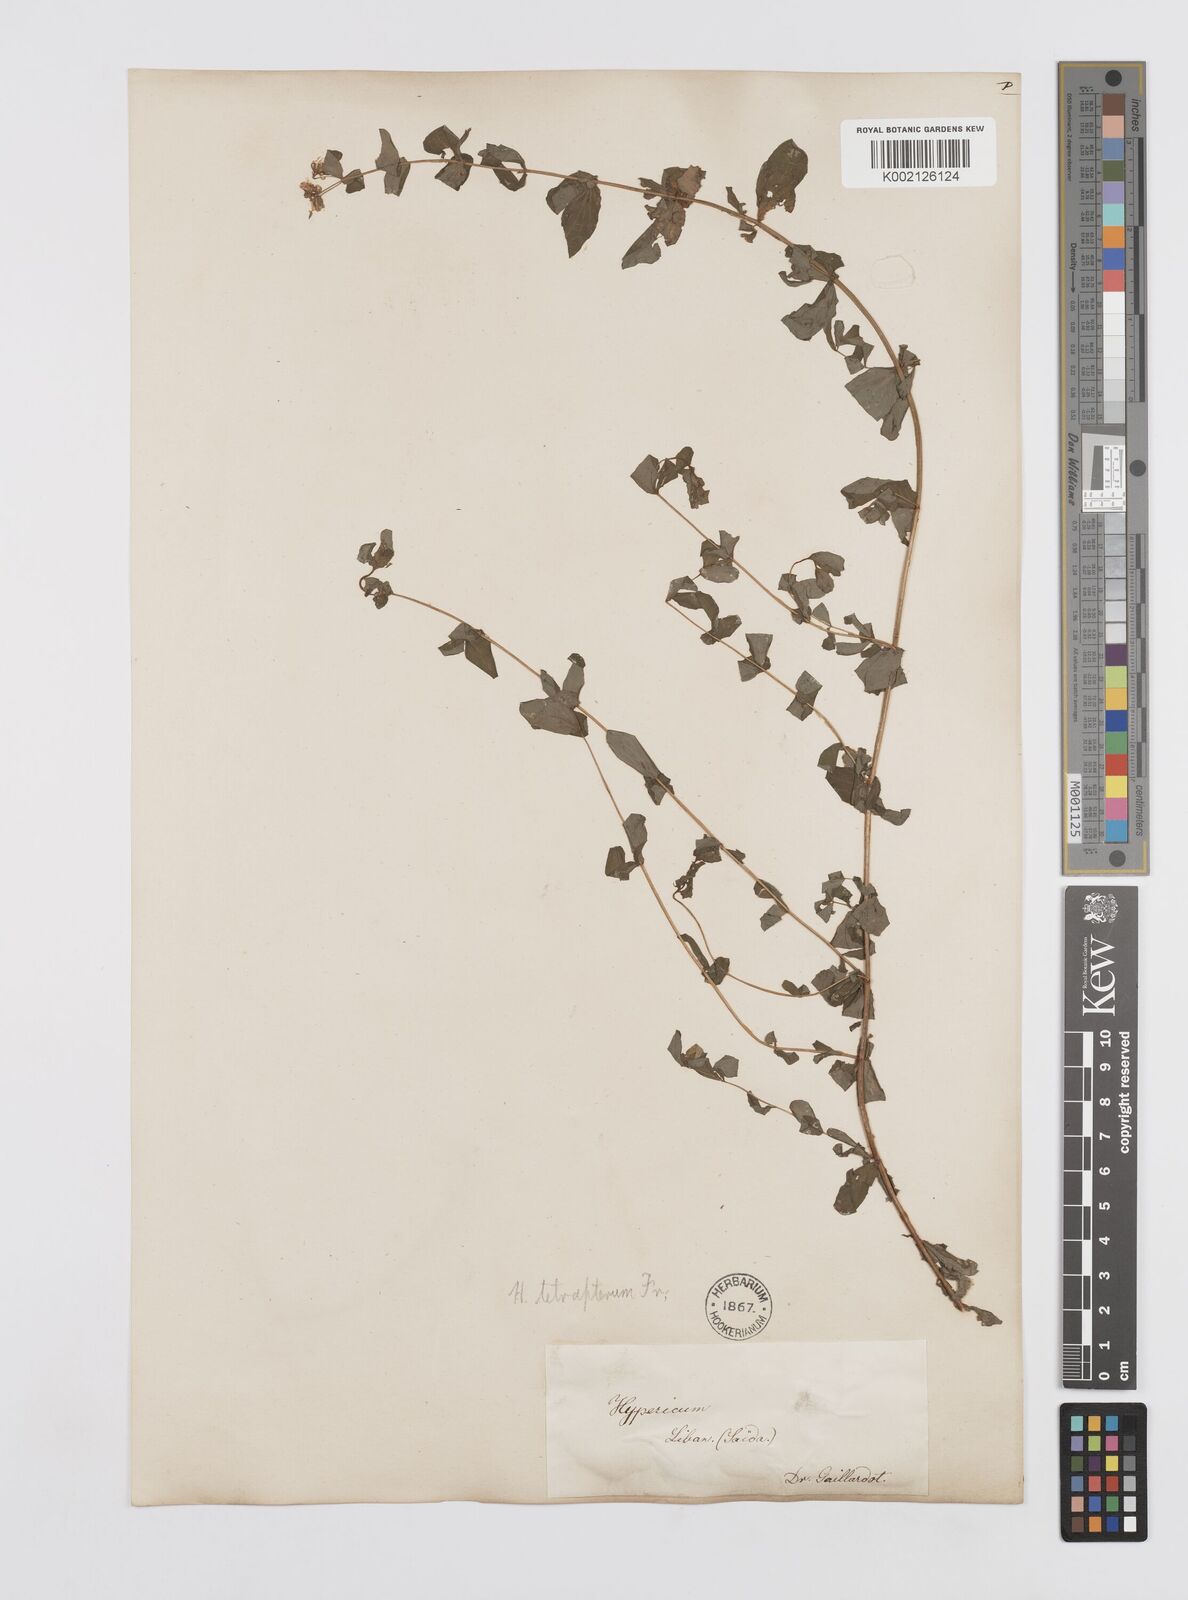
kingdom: Plantae
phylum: Tracheophyta
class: Magnoliopsida
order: Malpighiales
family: Hypericaceae
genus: Hypericum
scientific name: Hypericum tetrapterum
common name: Square-stalked st. john's-wort
